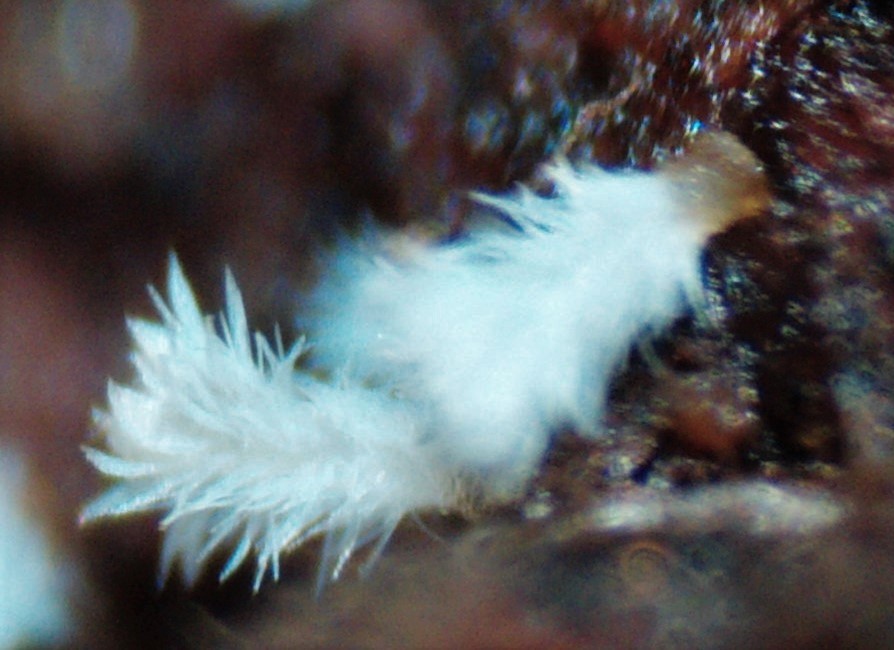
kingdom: Fungi
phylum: Ascomycota
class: Leotiomycetes
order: Helotiales
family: Lachnaceae
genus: Lachnum
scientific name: Lachnum virgineum
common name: jomfru-frynseskive
